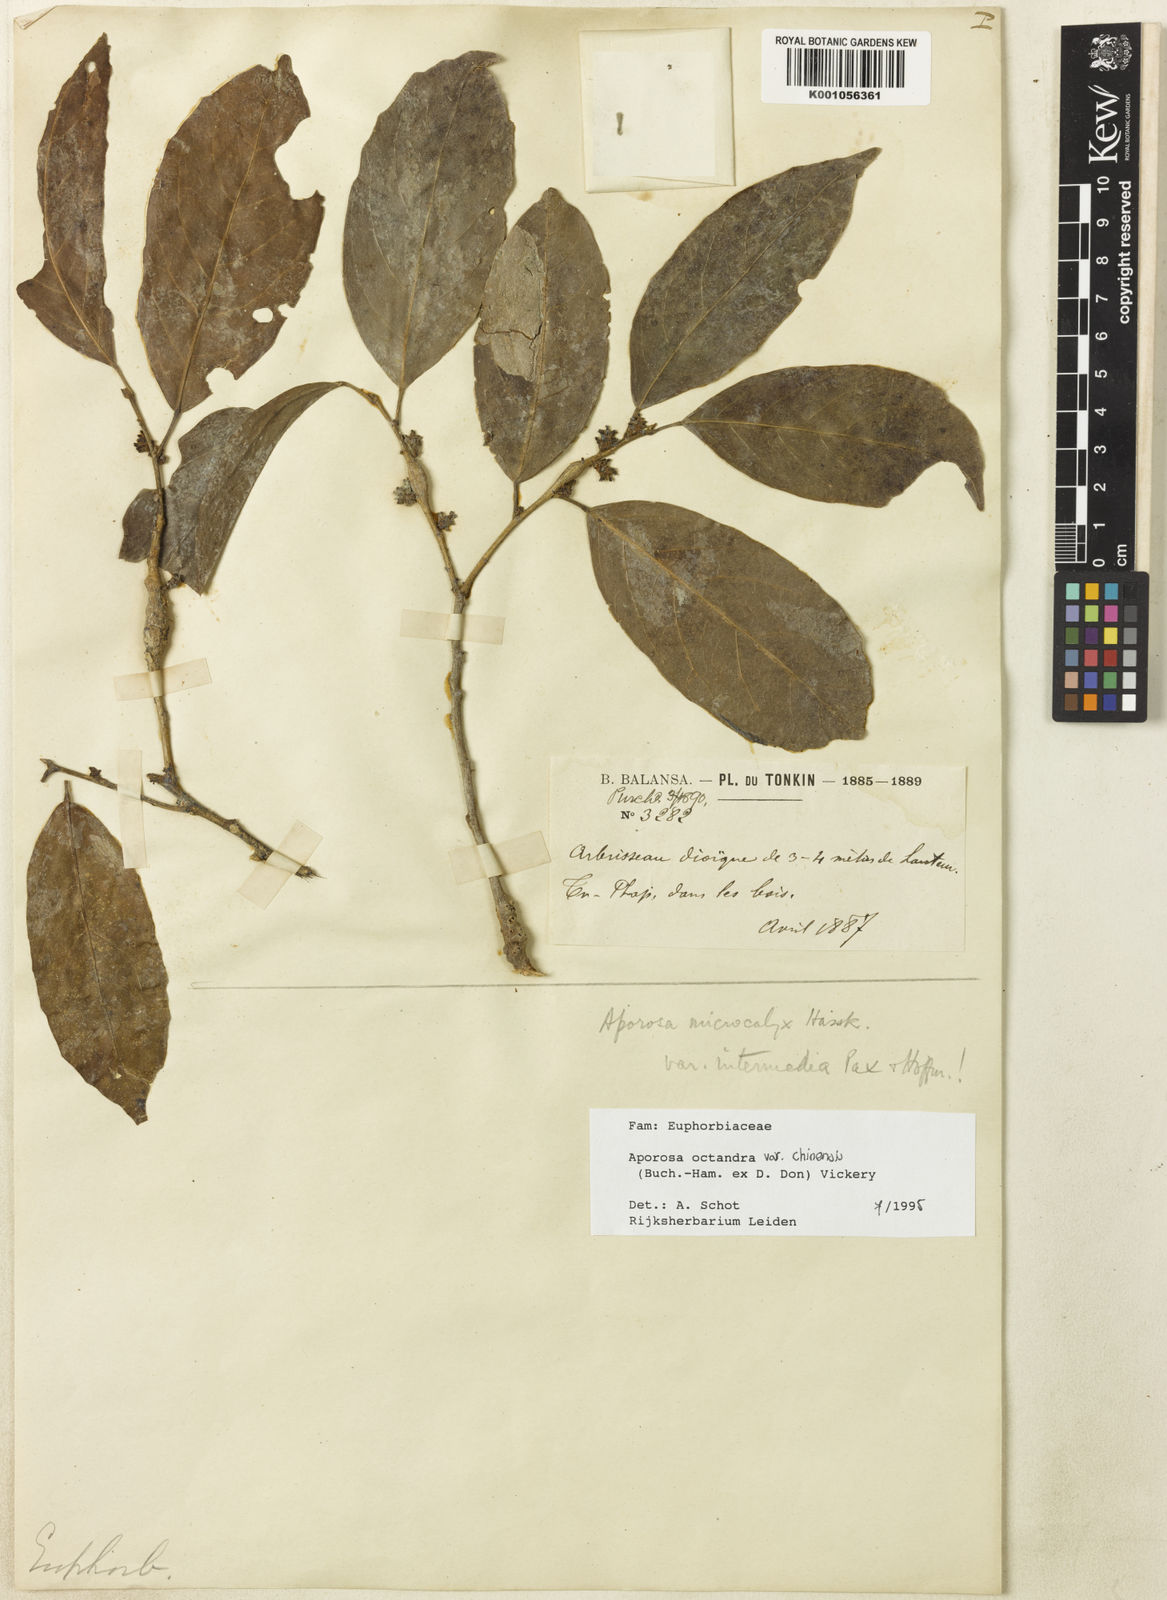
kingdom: Plantae
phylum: Tracheophyta
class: Magnoliopsida
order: Malpighiales
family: Phyllanthaceae
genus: Aporosa
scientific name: Aporosa octandra
